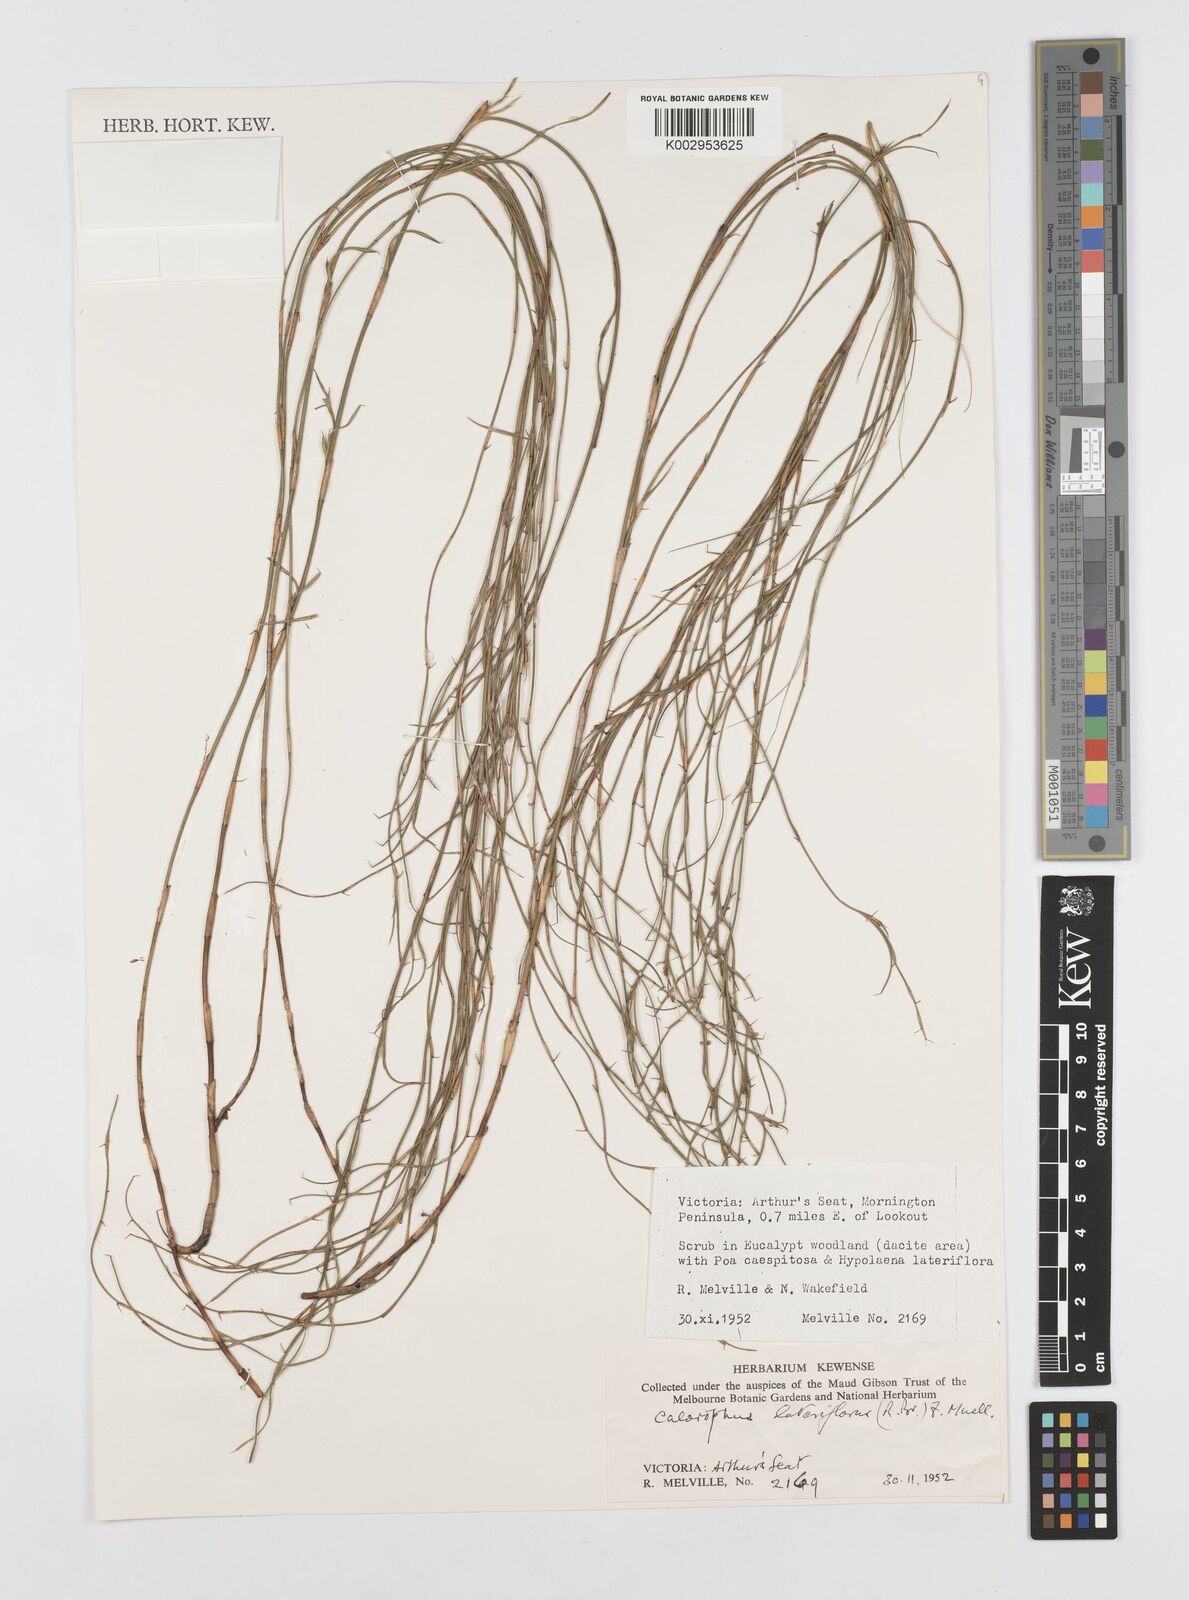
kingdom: Plantae
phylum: Tracheophyta
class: Liliopsida
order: Poales
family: Restionaceae
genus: Empodisma
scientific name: Empodisma minus
